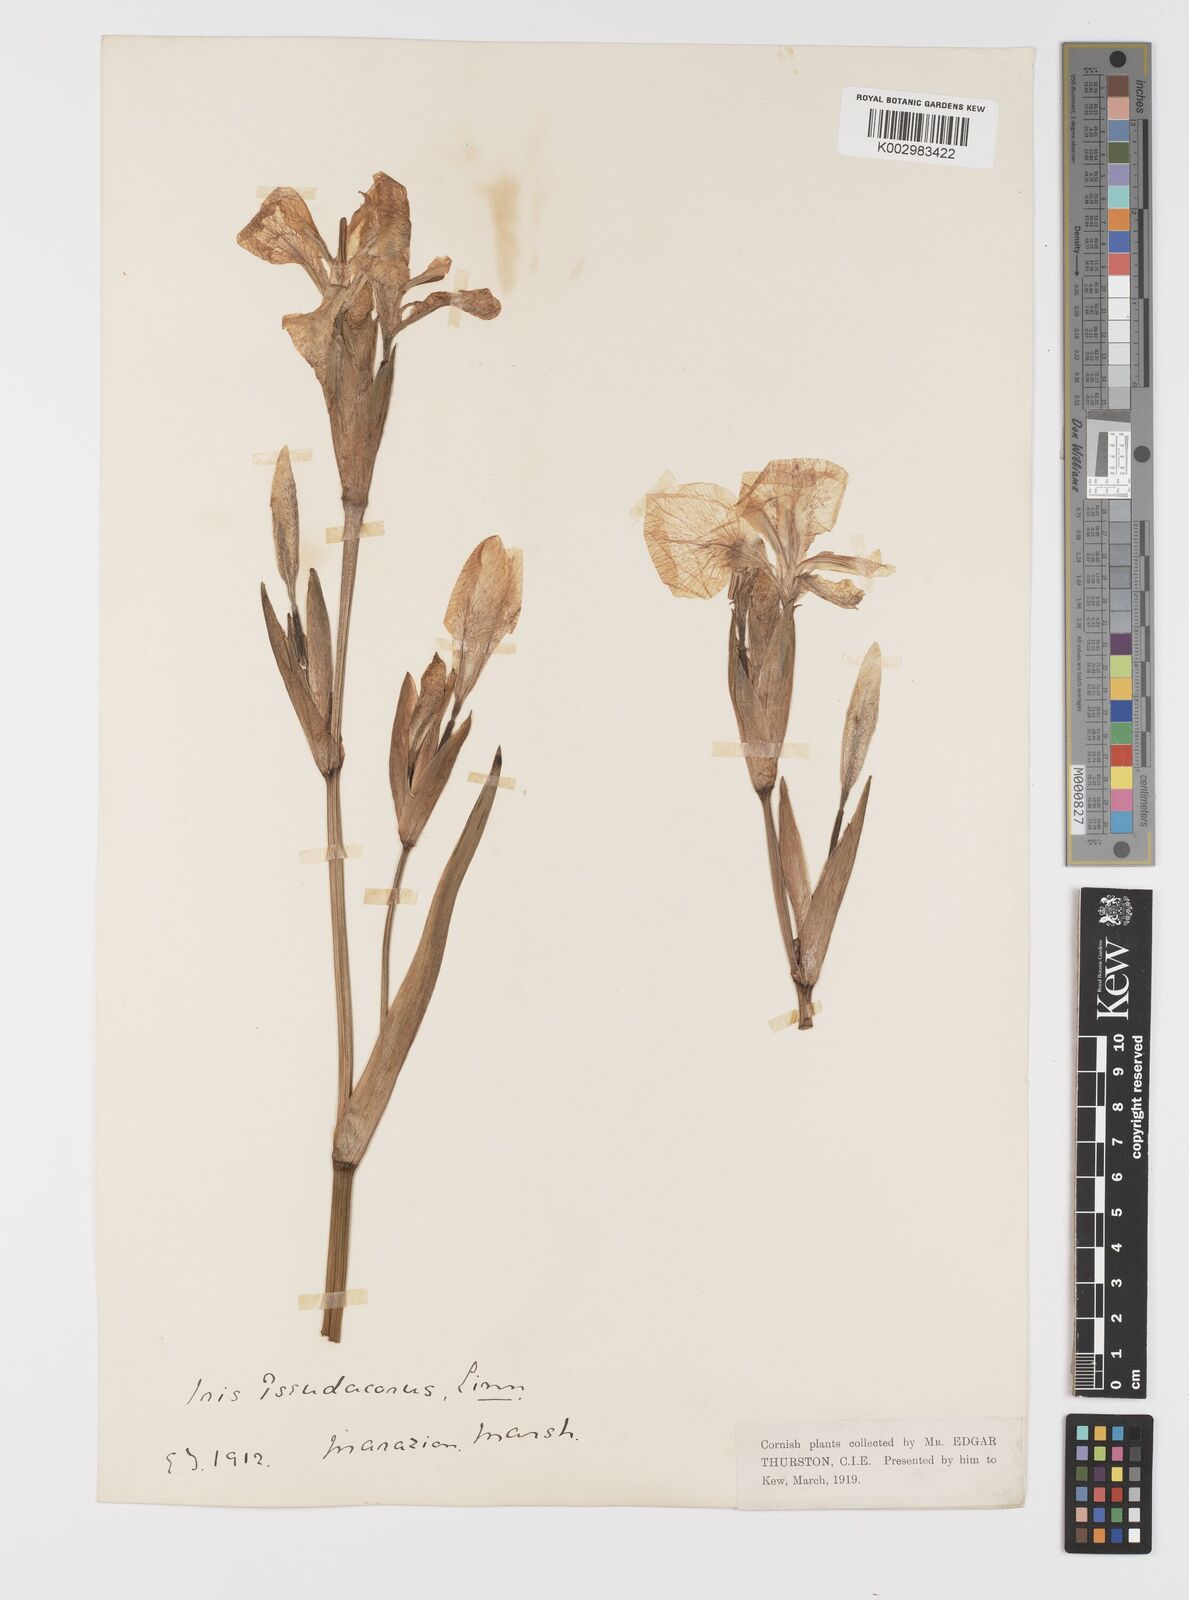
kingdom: Plantae
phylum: Tracheophyta
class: Liliopsida
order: Asparagales
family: Iridaceae
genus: Iris
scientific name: Iris pseudacorus
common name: Yellow flag
